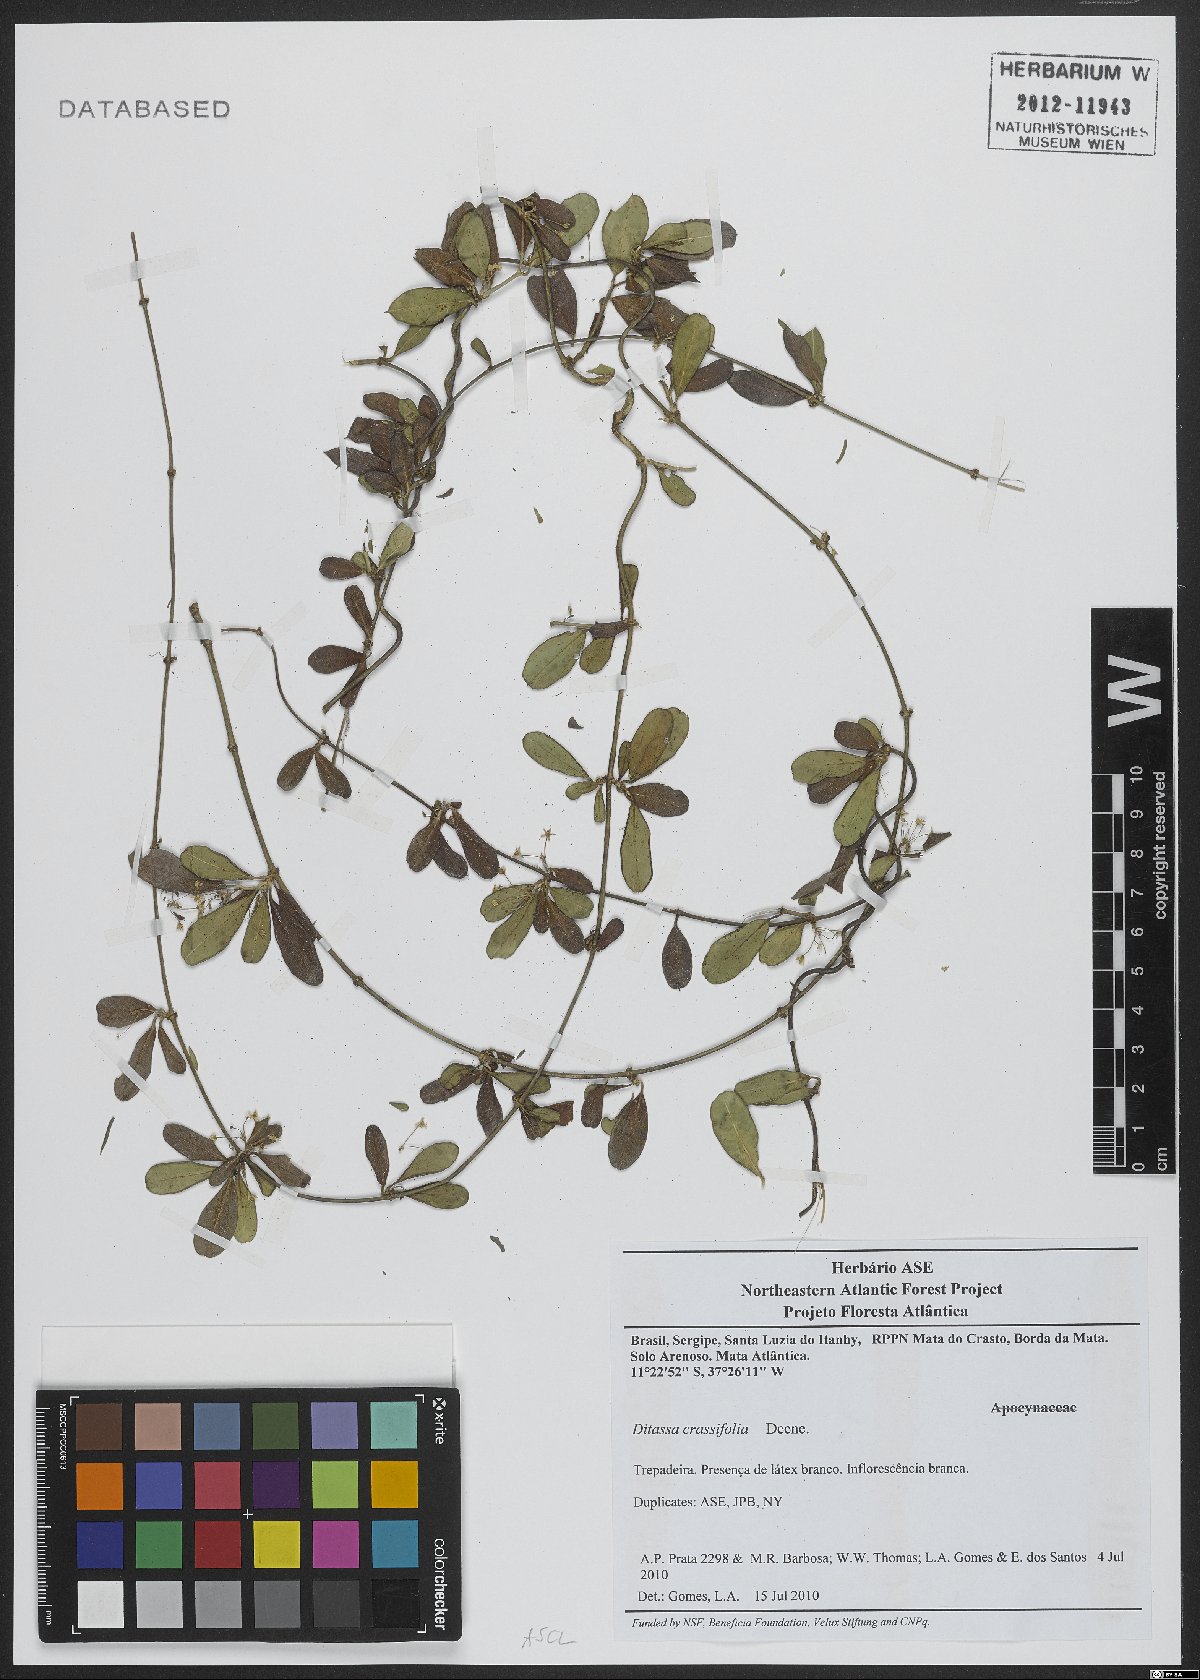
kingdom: Plantae
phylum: Tracheophyta
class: Magnoliopsida
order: Gentianales
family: Apocynaceae
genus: Ditassa
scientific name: Ditassa crassifolia
